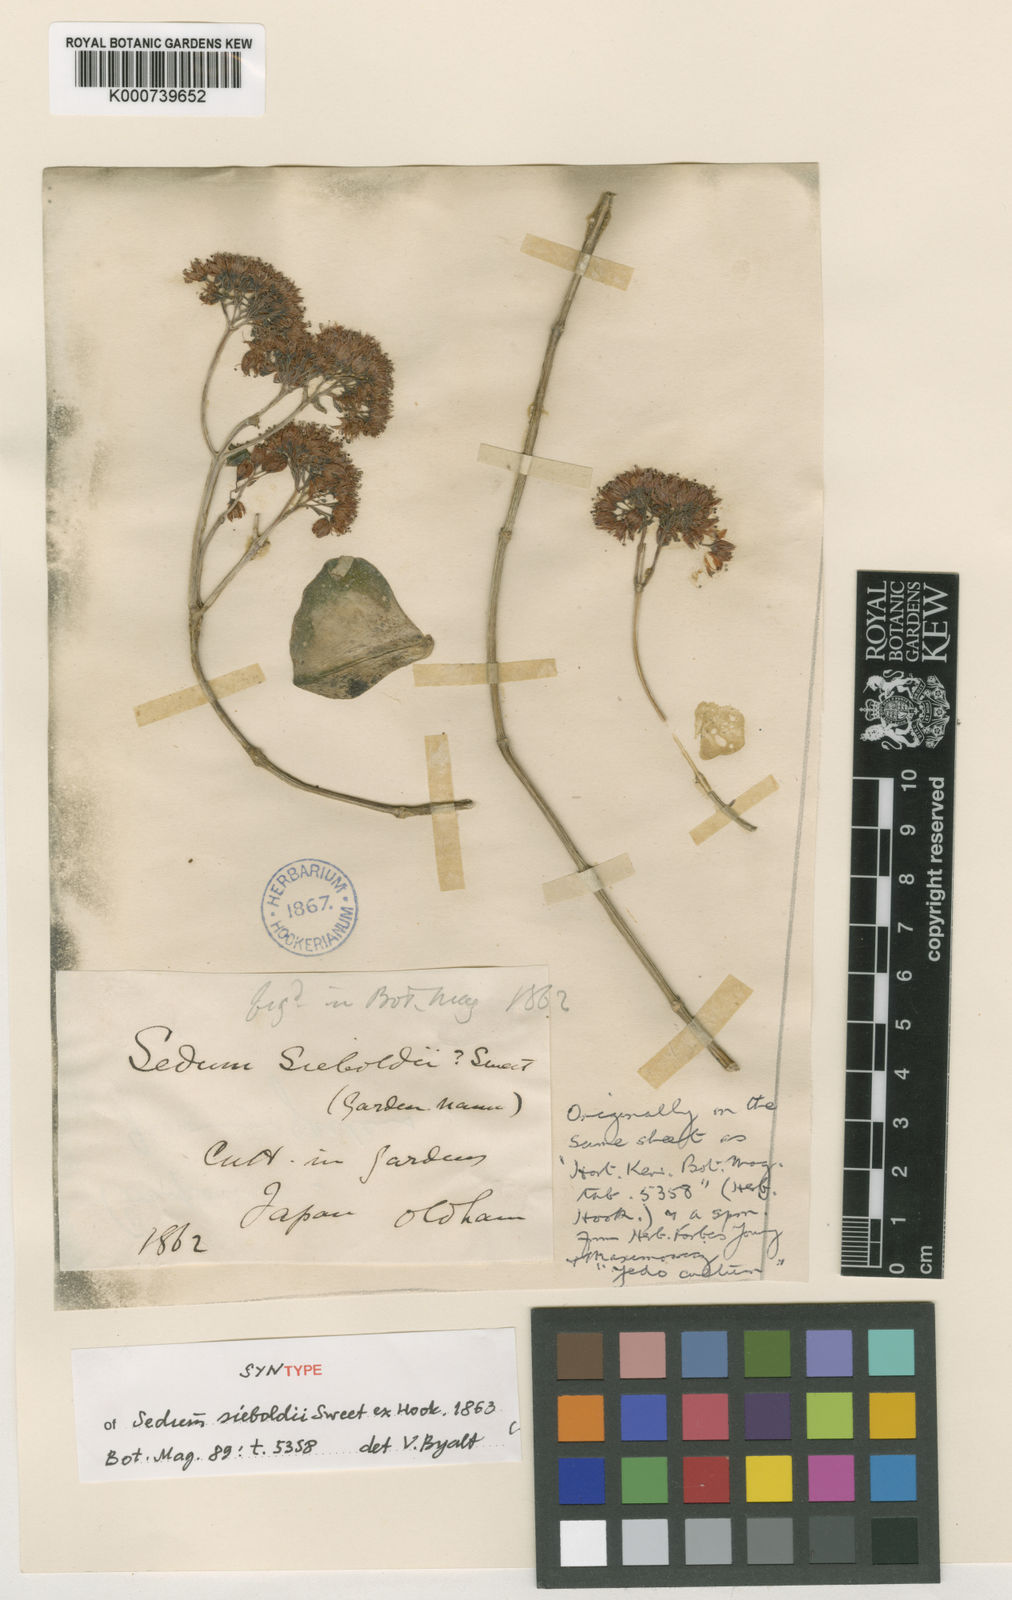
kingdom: Plantae
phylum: Tracheophyta
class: Magnoliopsida
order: Saxifragales
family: Crassulaceae
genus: Sedum
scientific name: Sedum
